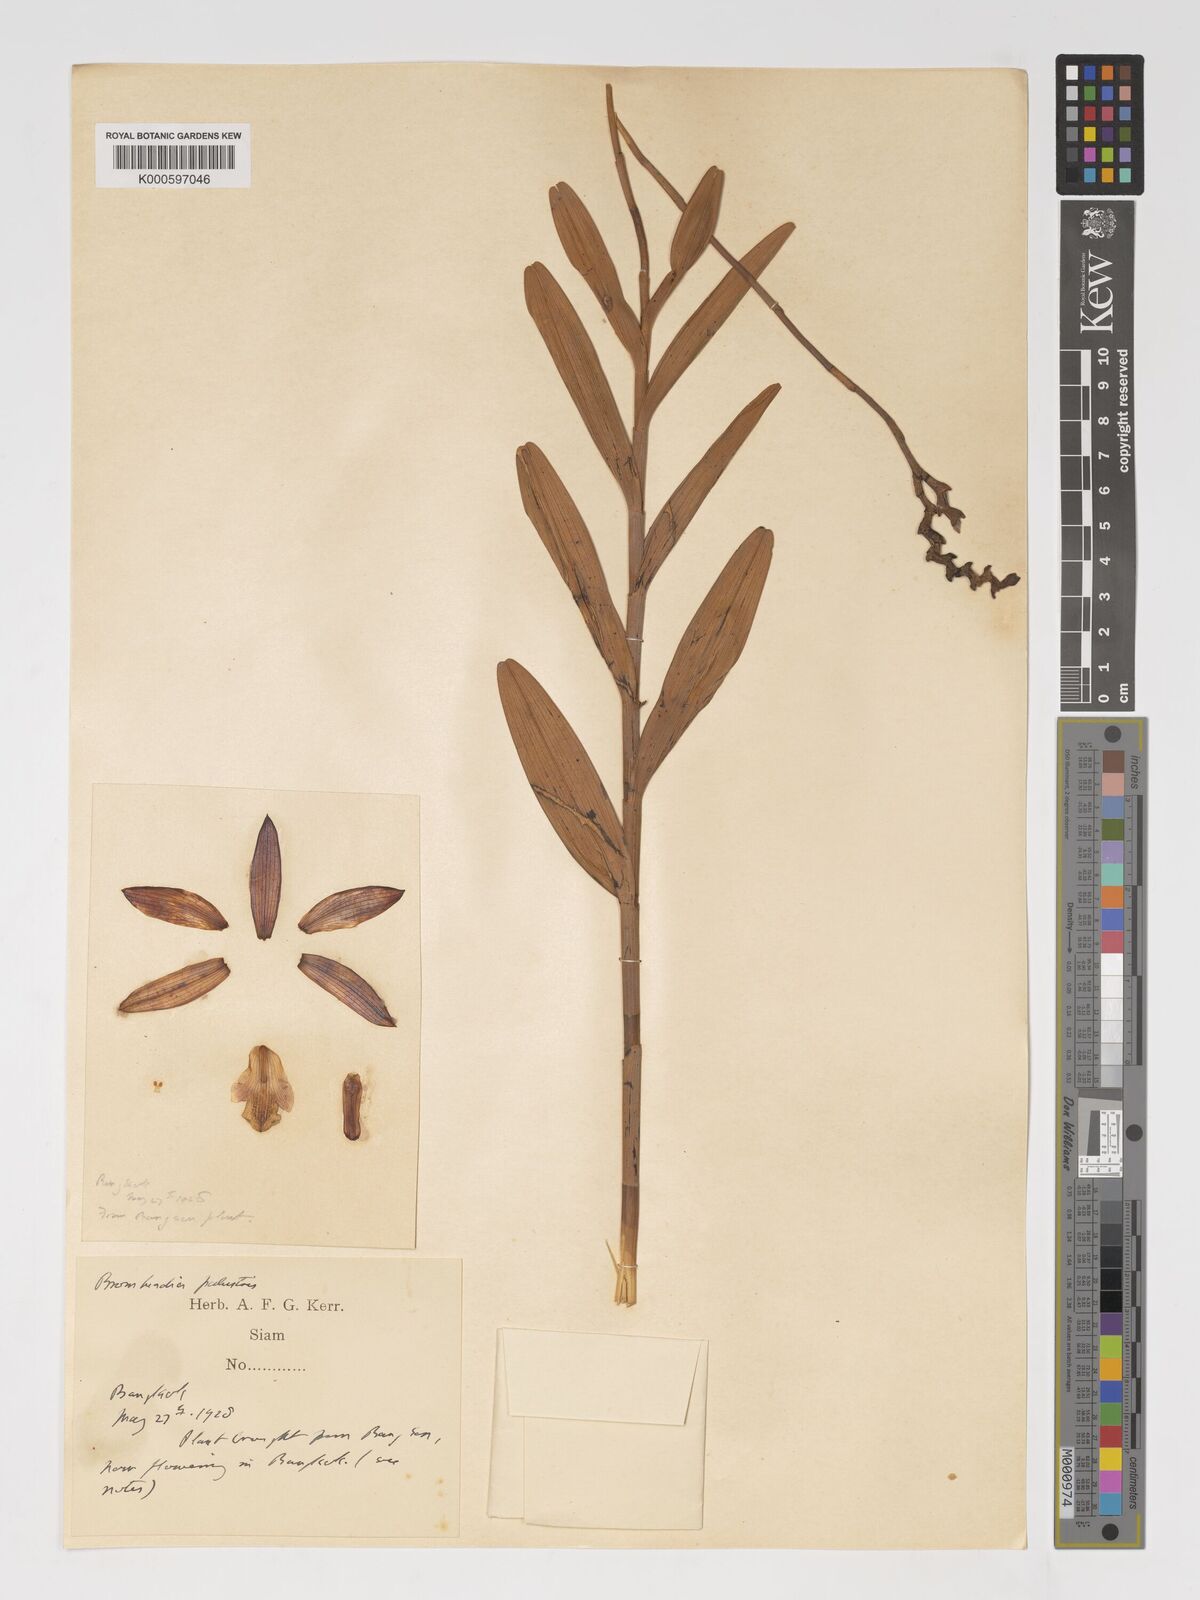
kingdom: Plantae
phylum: Tracheophyta
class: Liliopsida
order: Asparagales
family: Orchidaceae
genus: Bromheadia
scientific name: Bromheadia
